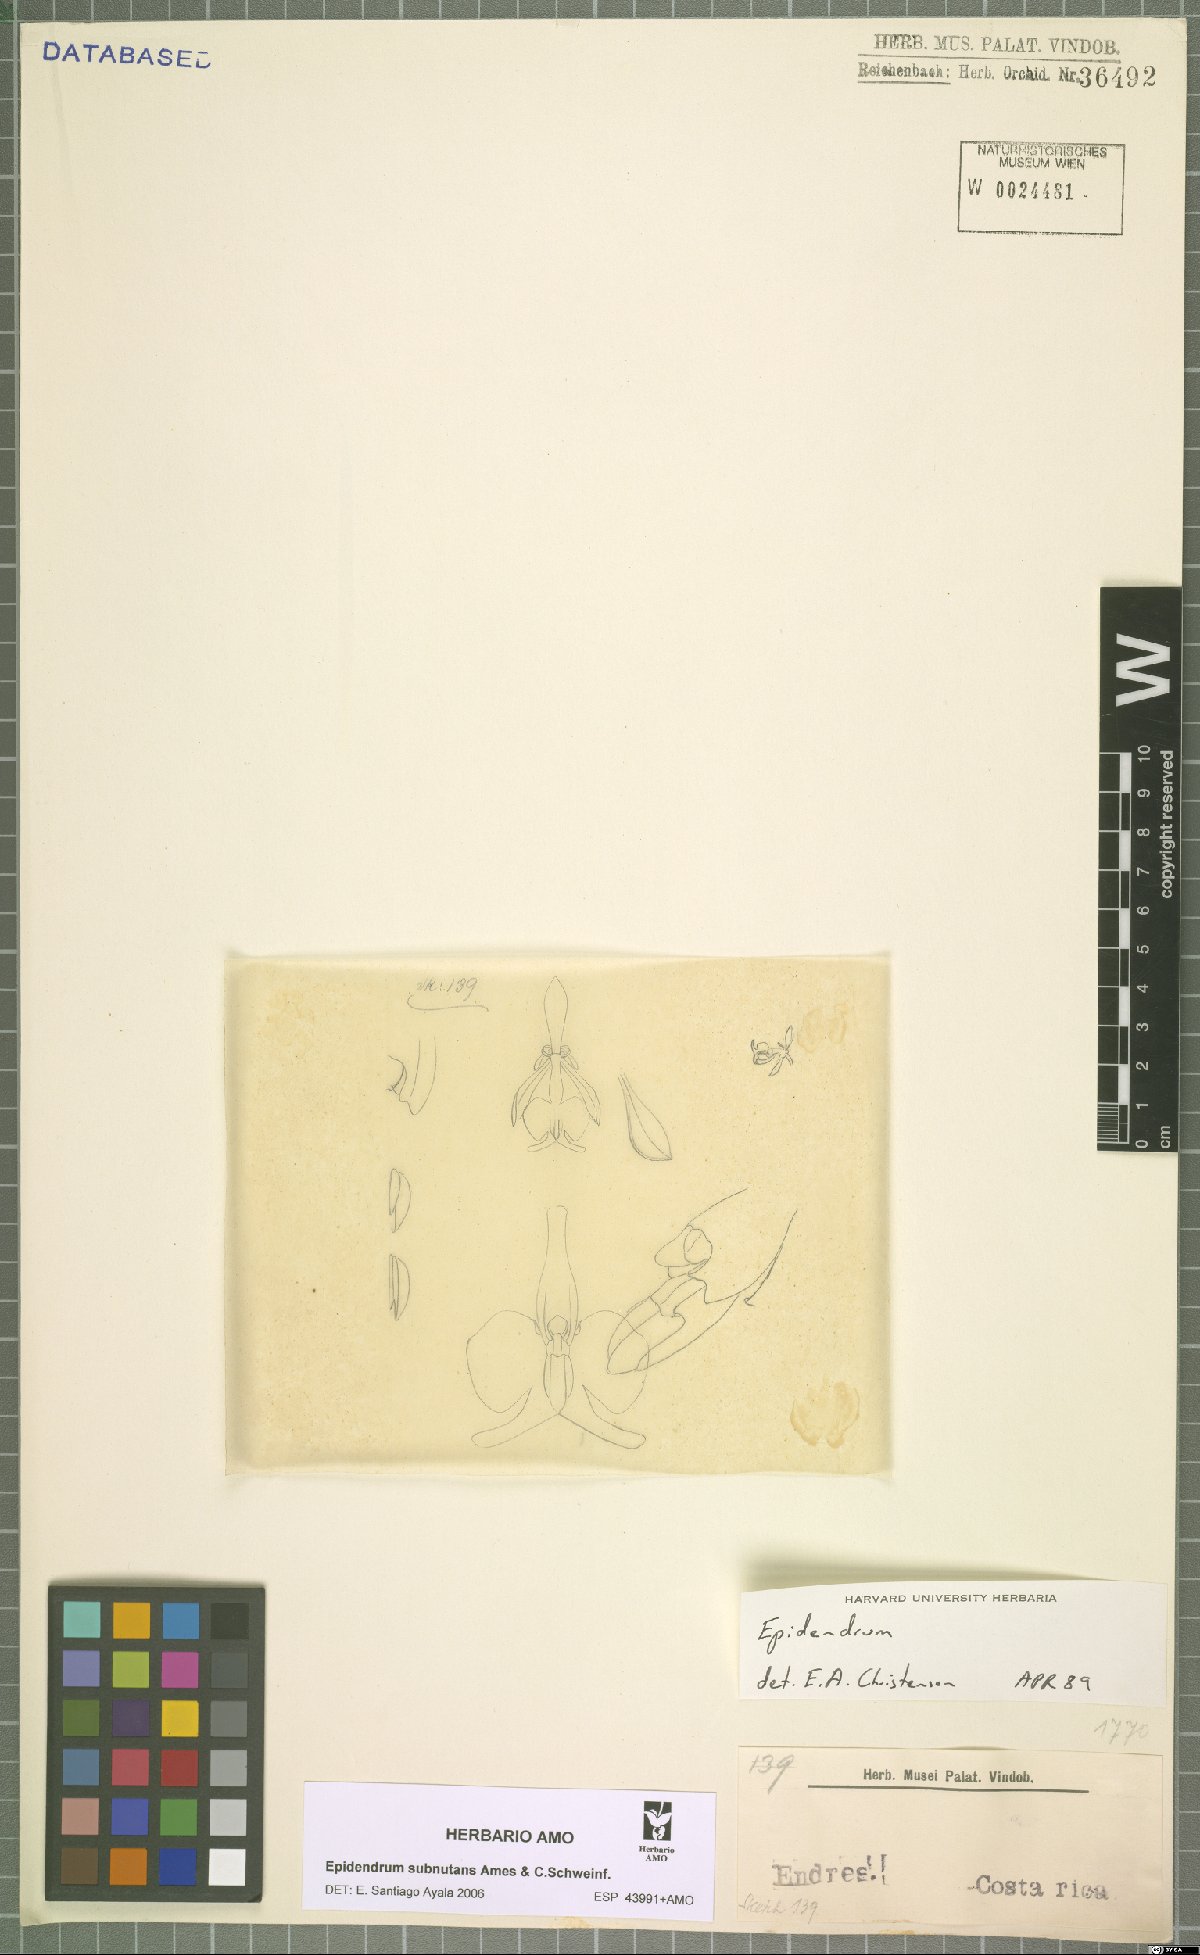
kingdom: Plantae
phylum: Tracheophyta
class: Liliopsida
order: Asparagales
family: Orchidaceae
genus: Epidendrum
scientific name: Epidendrum subnutans
